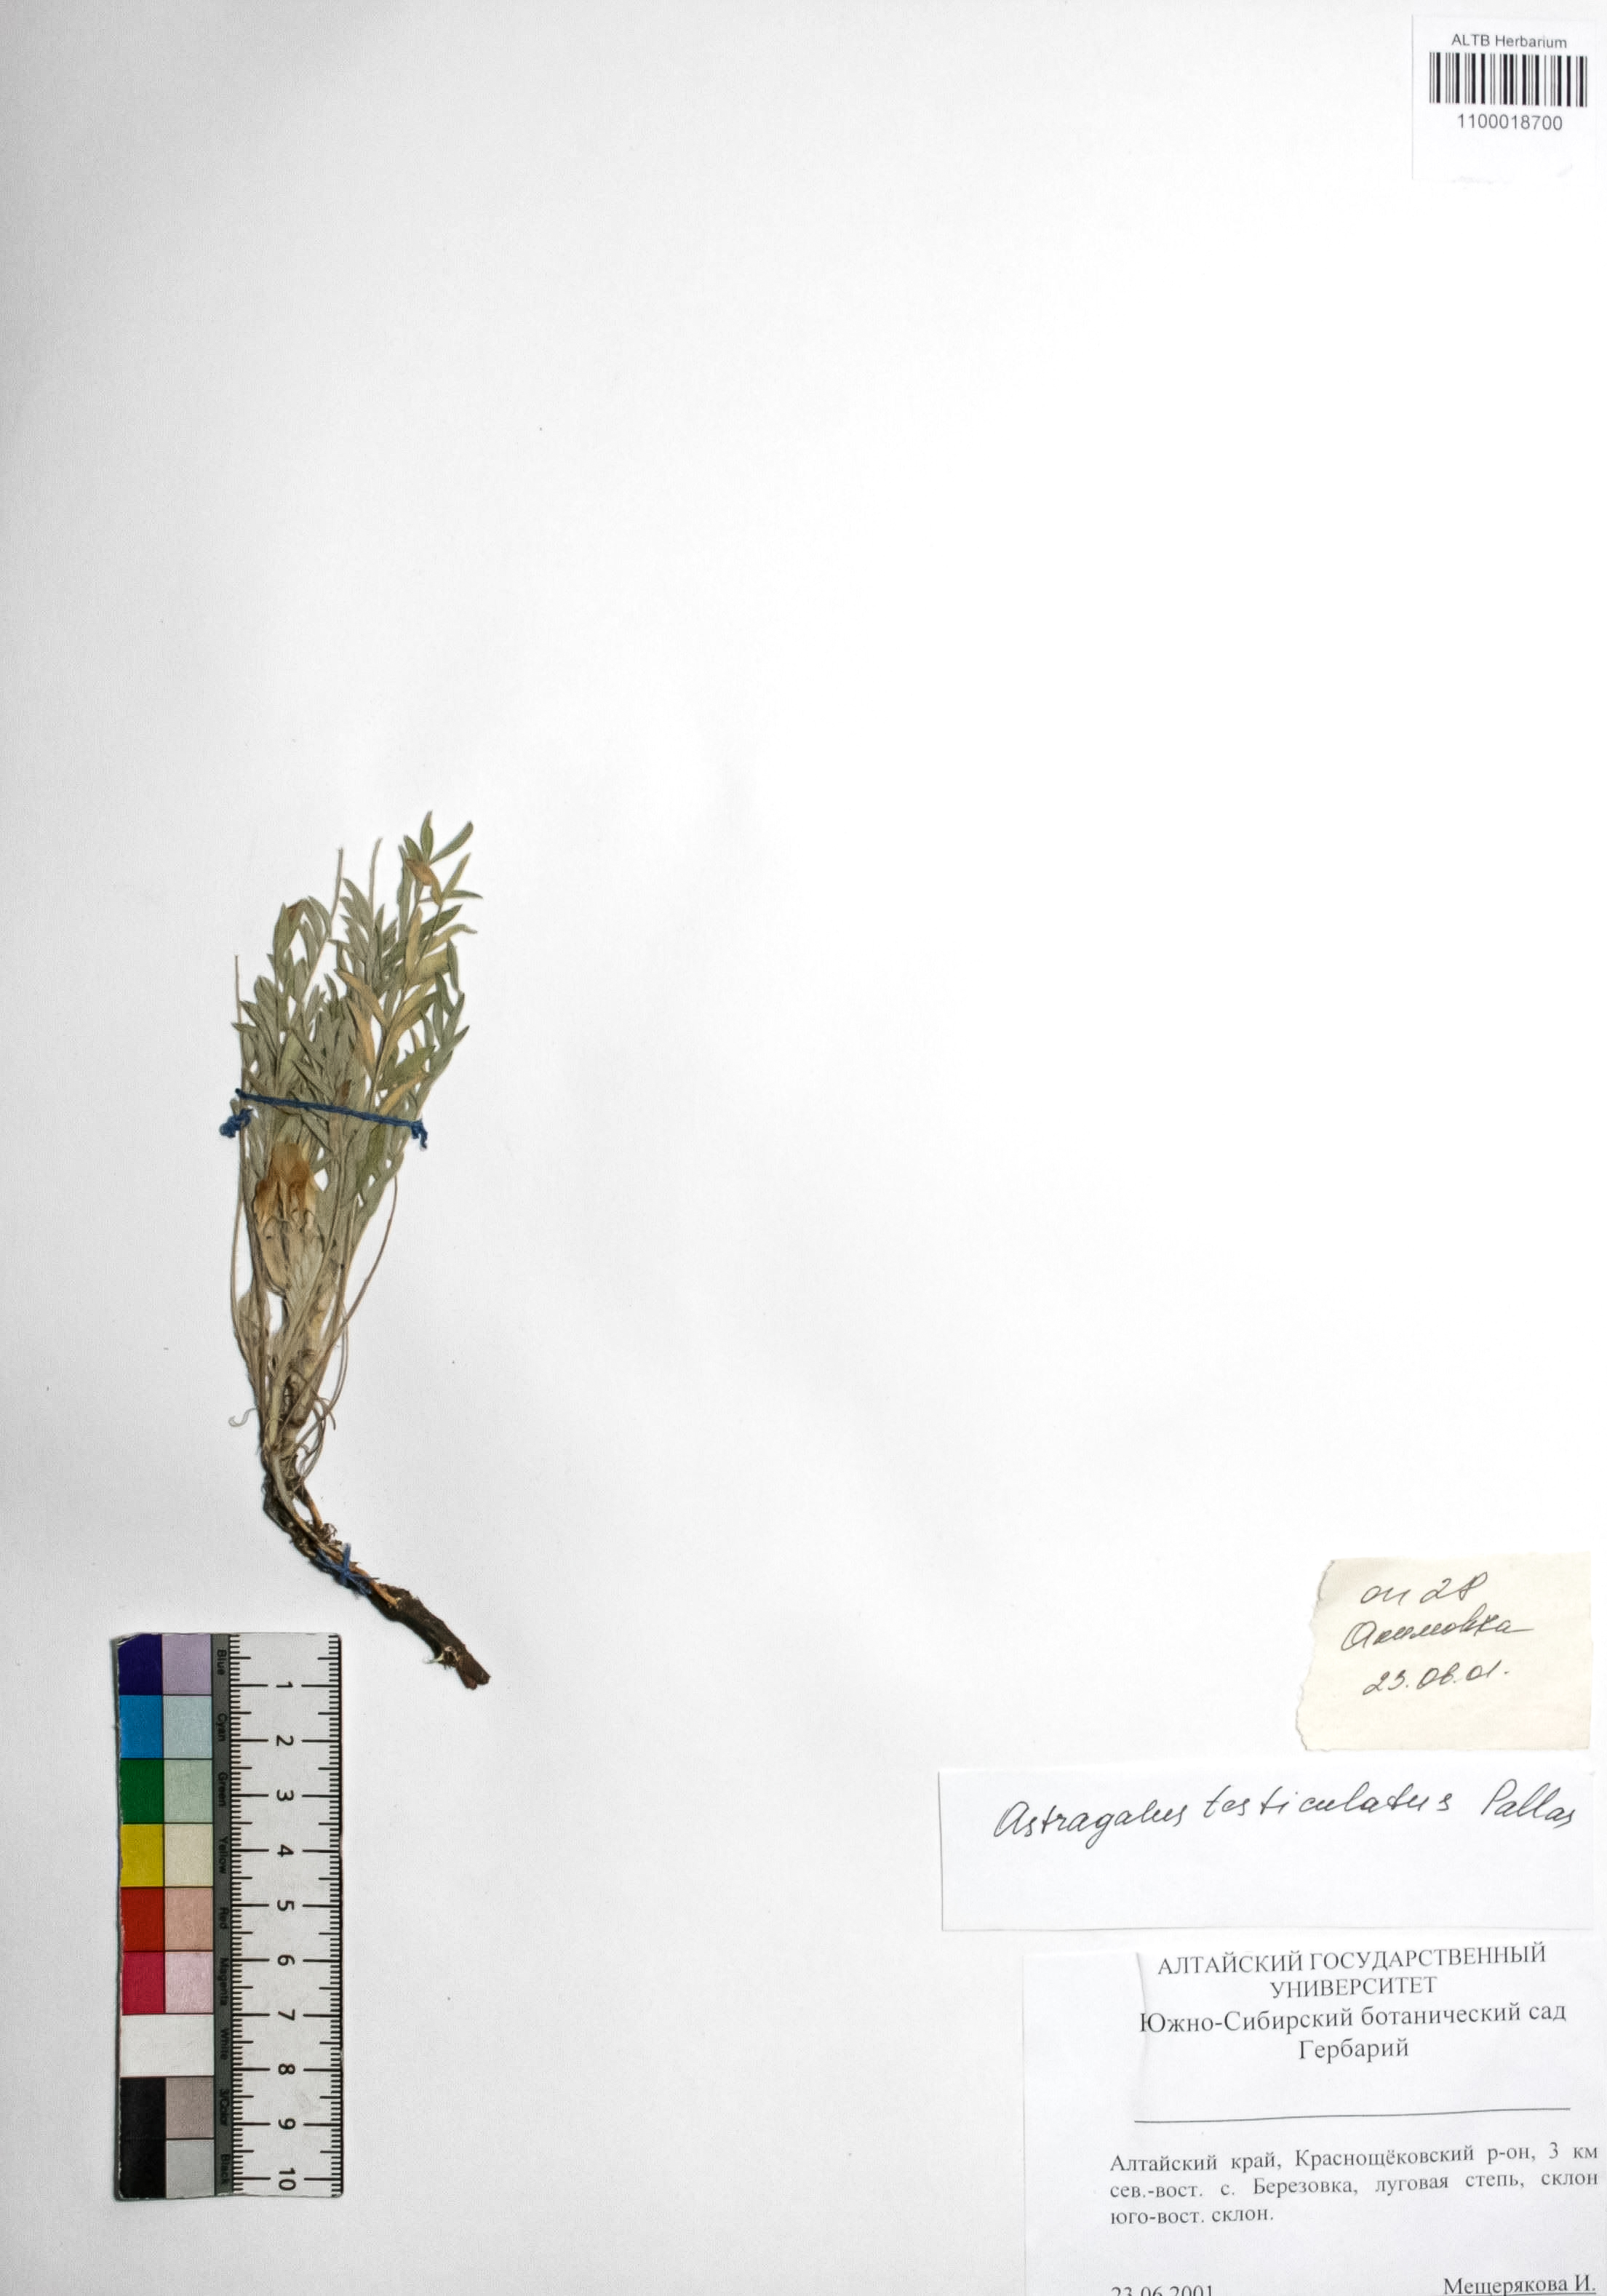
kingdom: Plantae
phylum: Tracheophyta
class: Magnoliopsida
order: Fabales
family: Fabaceae
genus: Astragalus
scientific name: Astragalus testiculatus
